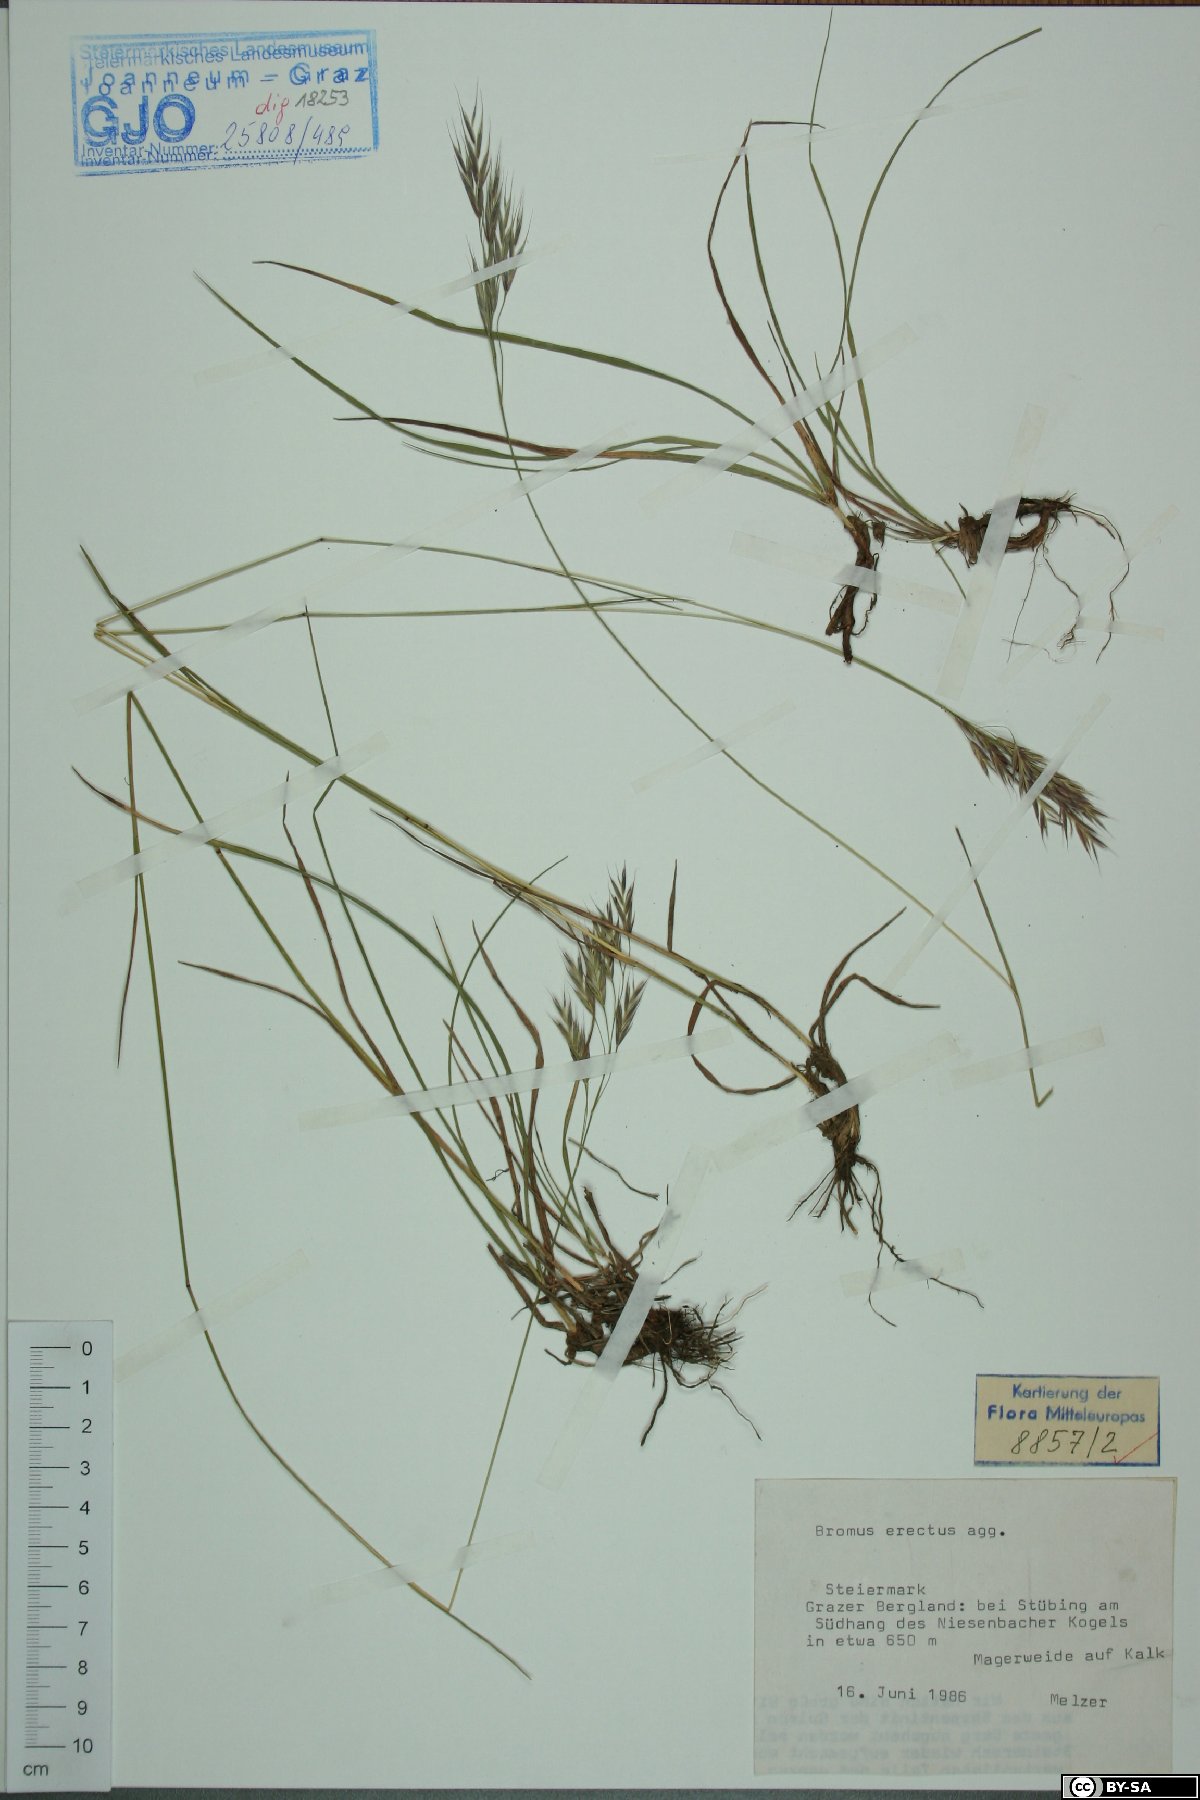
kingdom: Plantae
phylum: Tracheophyta
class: Liliopsida
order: Poales
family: Poaceae
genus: Bromus
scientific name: Bromus erectus
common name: Erect brome
